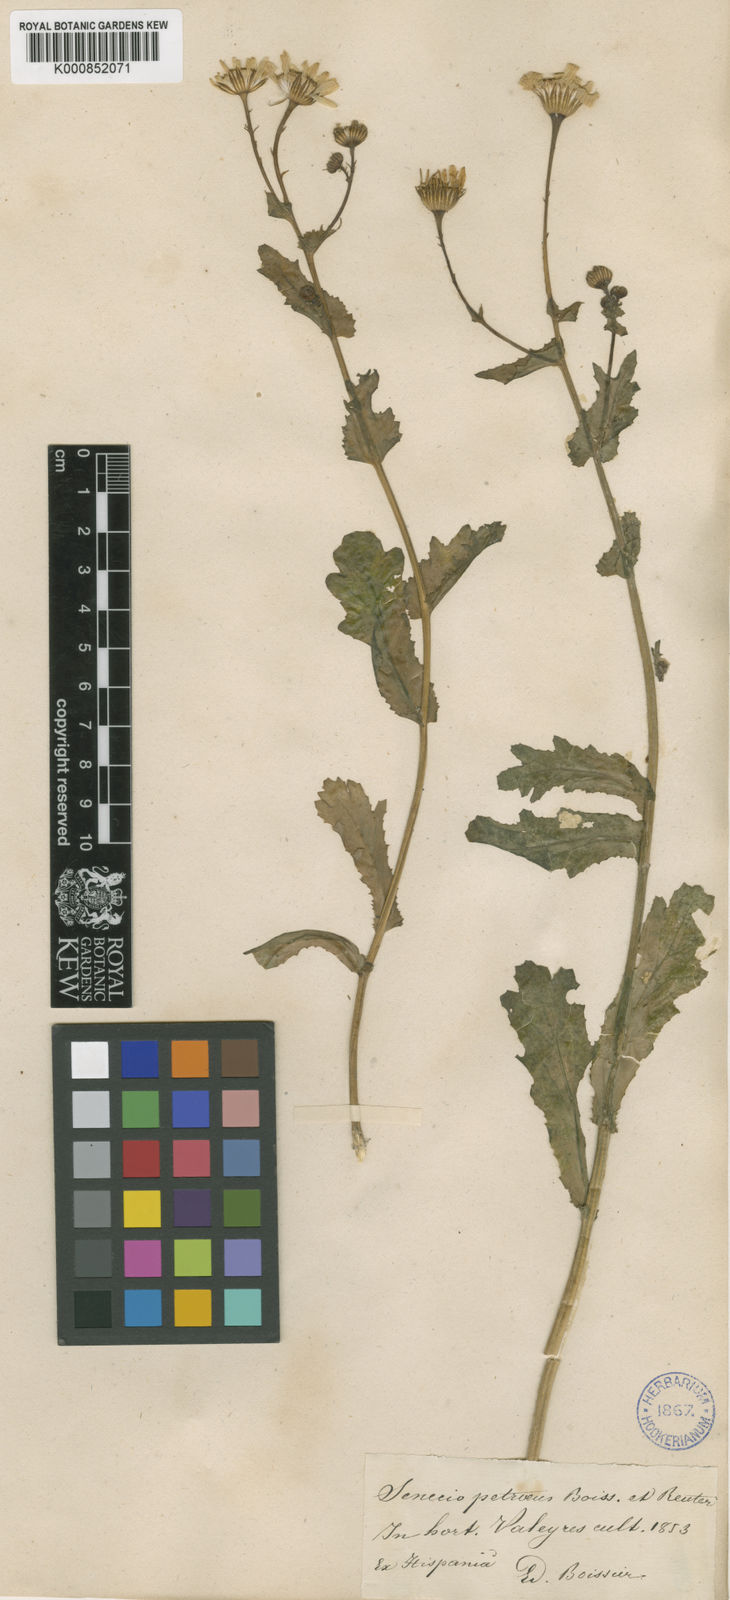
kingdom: Plantae
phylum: Tracheophyta
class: Magnoliopsida
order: Asterales
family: Asteraceae
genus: Senecio
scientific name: Senecio petraeus
